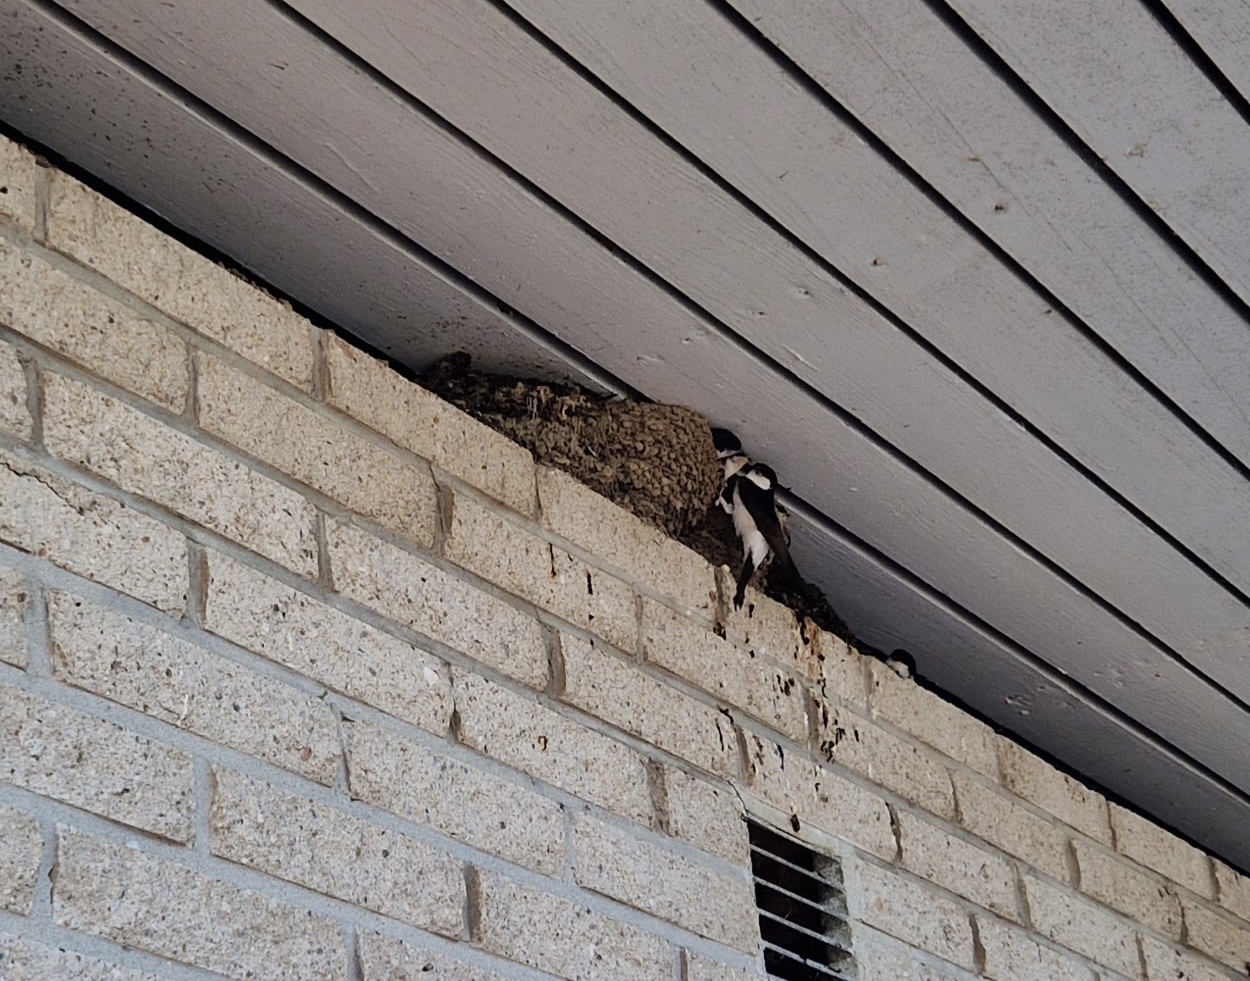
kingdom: Animalia
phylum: Chordata
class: Aves
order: Passeriformes
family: Hirundinidae
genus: Delichon
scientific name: Delichon urbicum
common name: Bysvale
